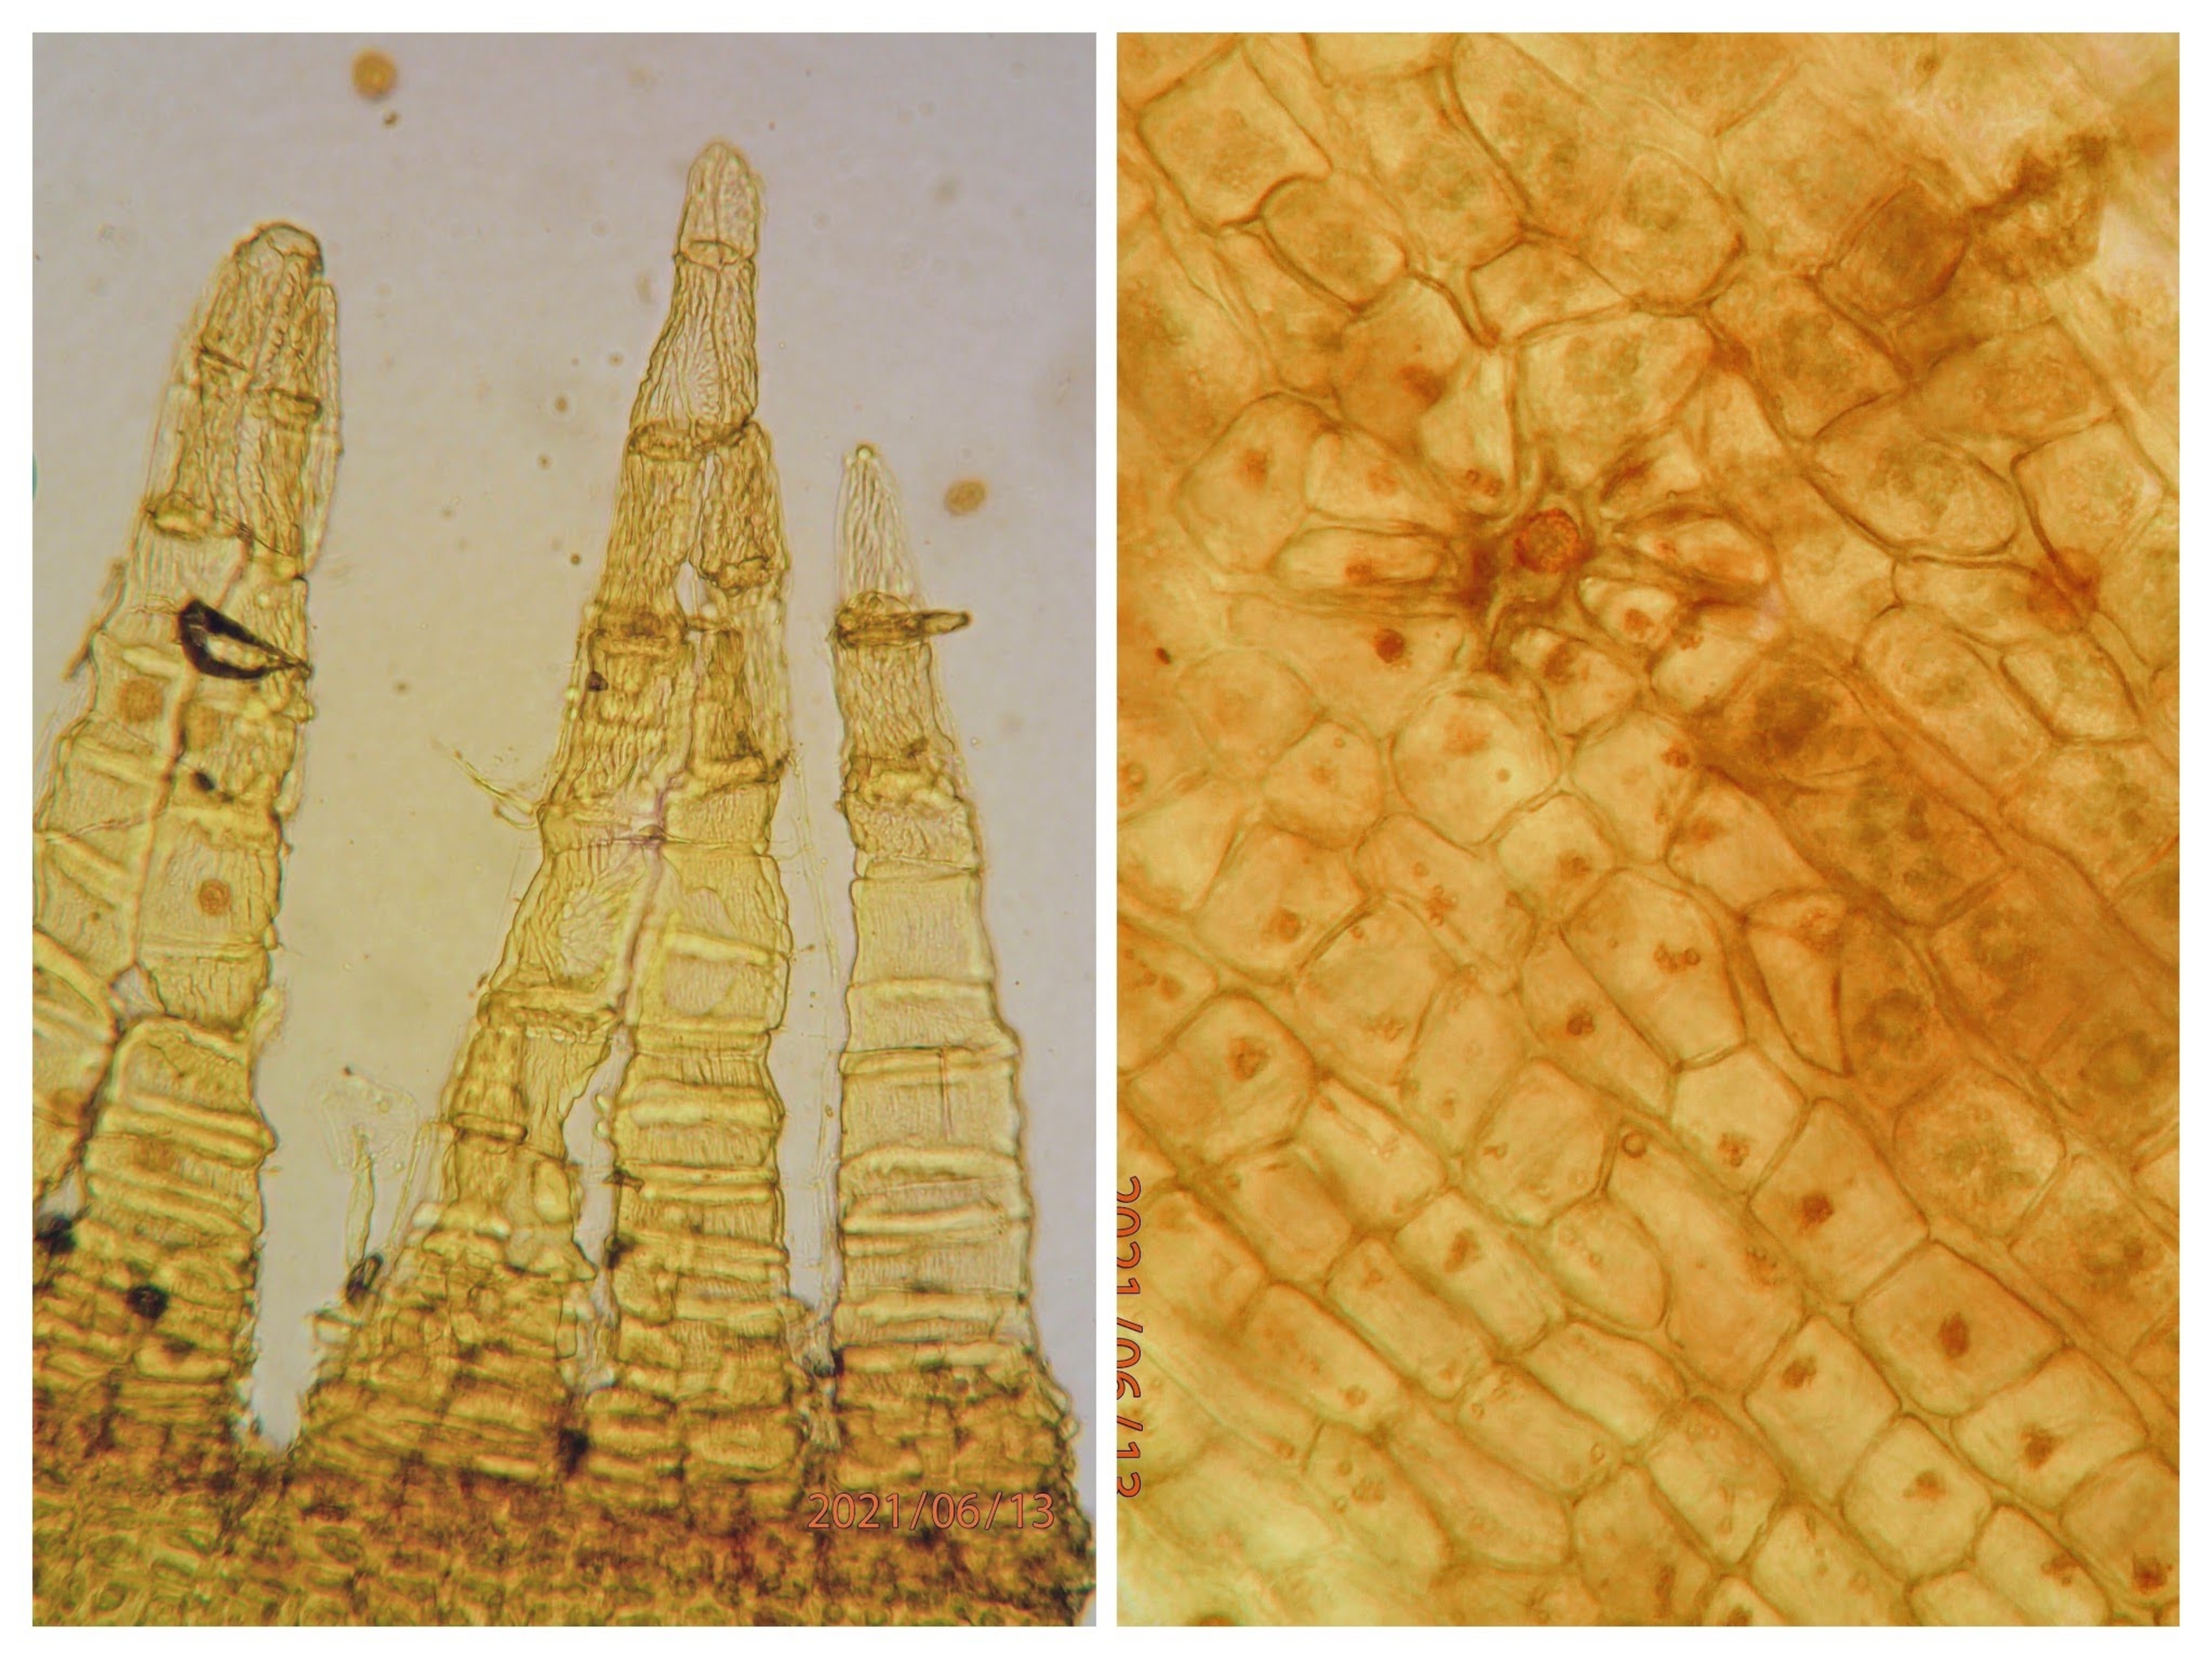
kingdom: Plantae
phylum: Bryophyta
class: Bryopsida
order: Orthotrichales
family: Orthotrichaceae
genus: Orthotrichum
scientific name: Orthotrichum cupulatum
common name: Skål-furehætte
